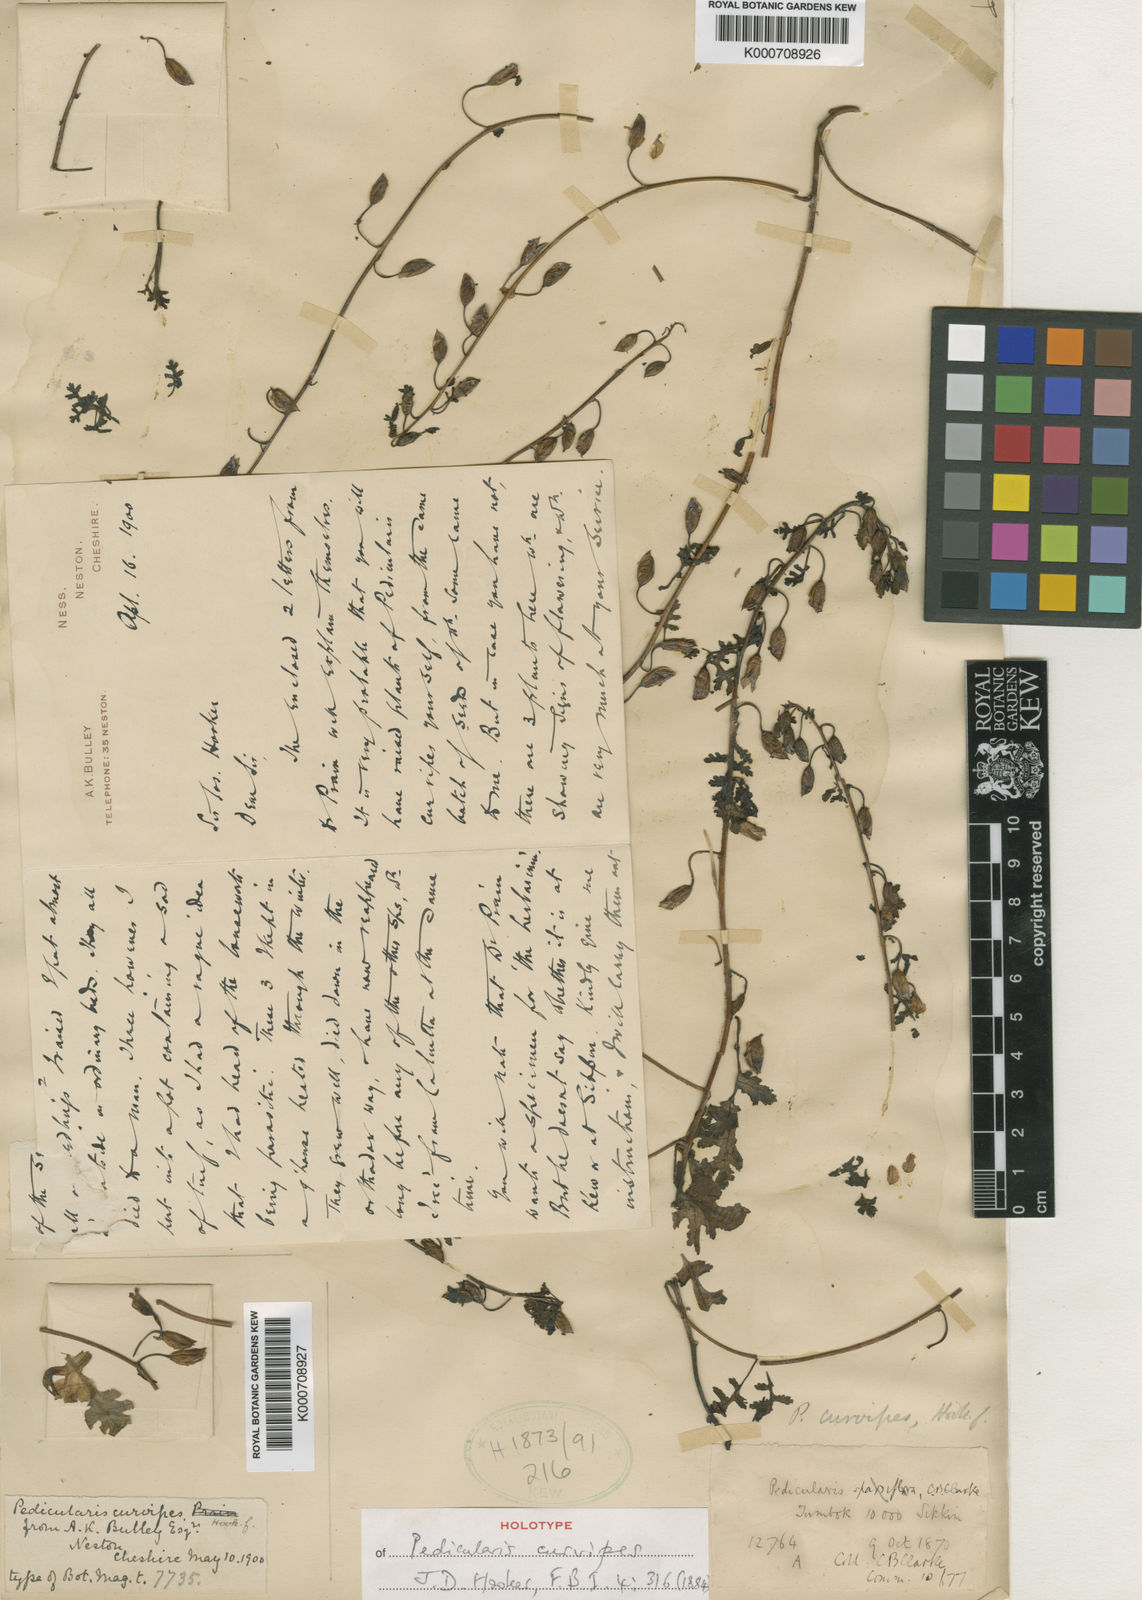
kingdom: Plantae
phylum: Tracheophyta
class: Magnoliopsida
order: Lamiales
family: Orobanchaceae
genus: Pedicularis
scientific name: Pedicularis curvipes
